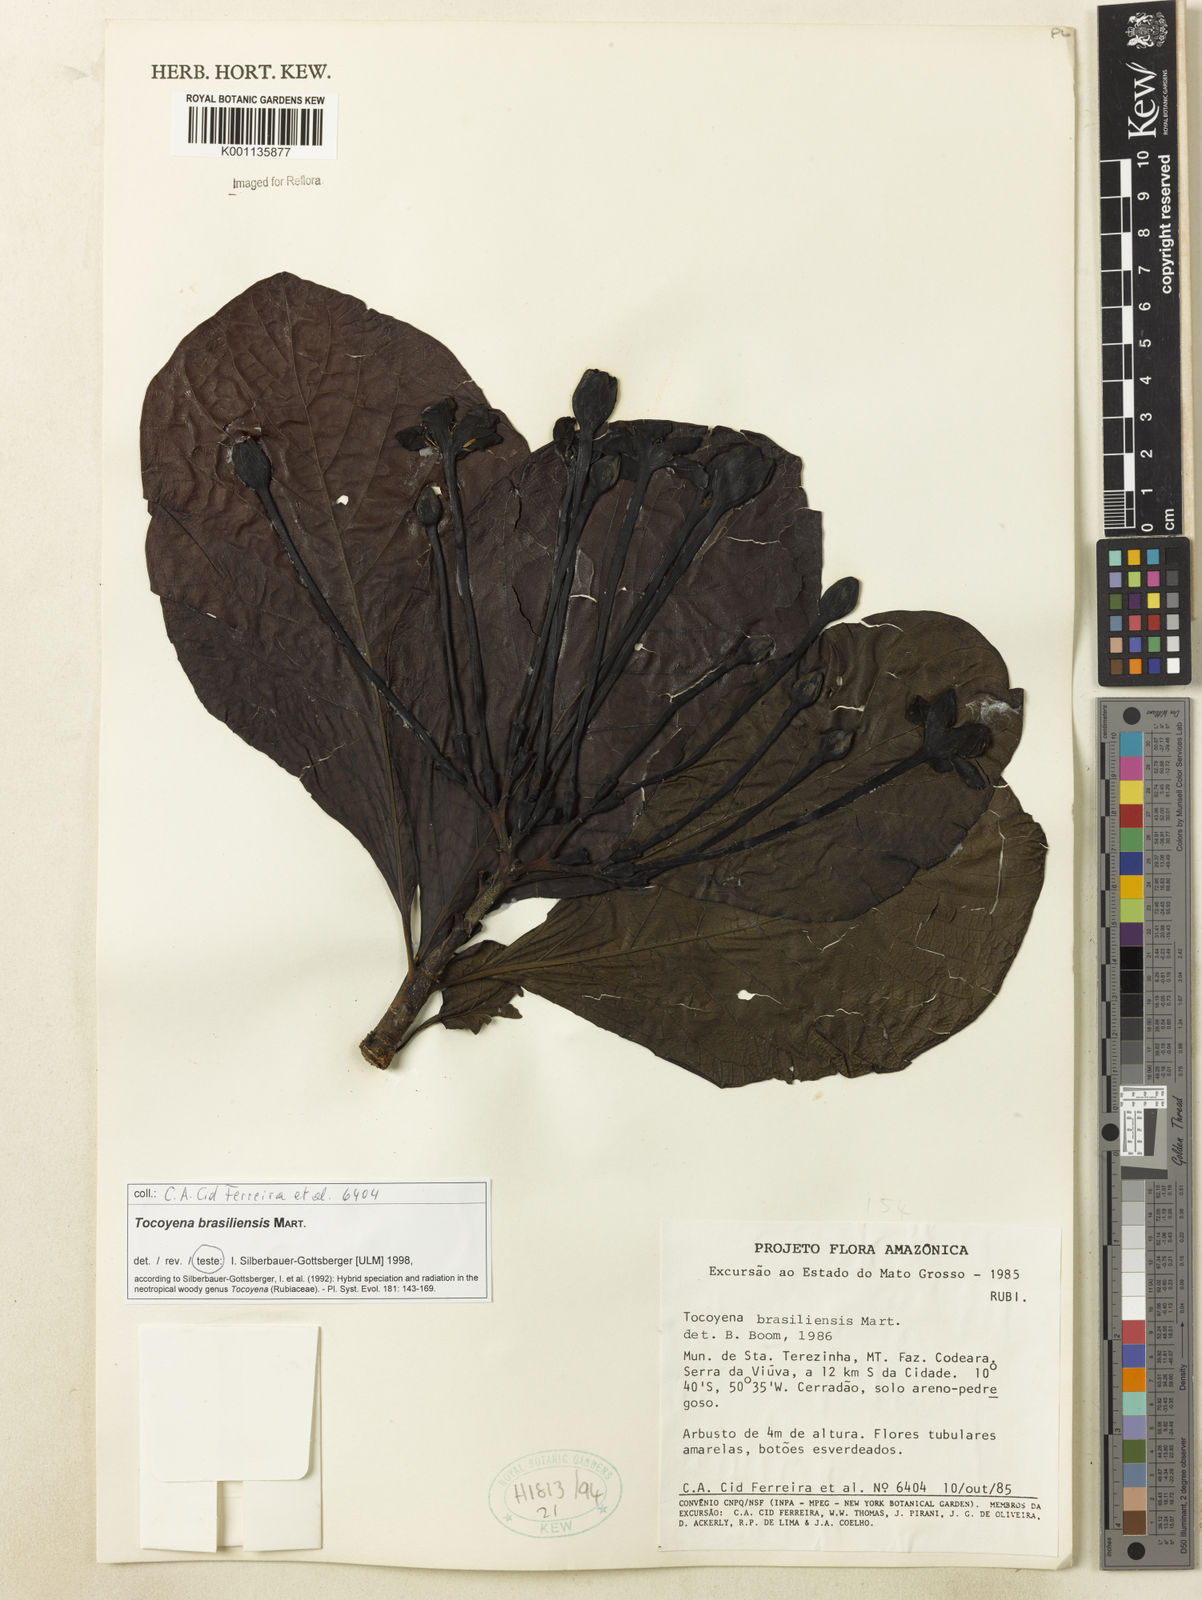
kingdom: Plantae
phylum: Tracheophyta
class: Magnoliopsida
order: Gentianales
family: Rubiaceae
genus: Tocoyena
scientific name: Tocoyena sprucei
